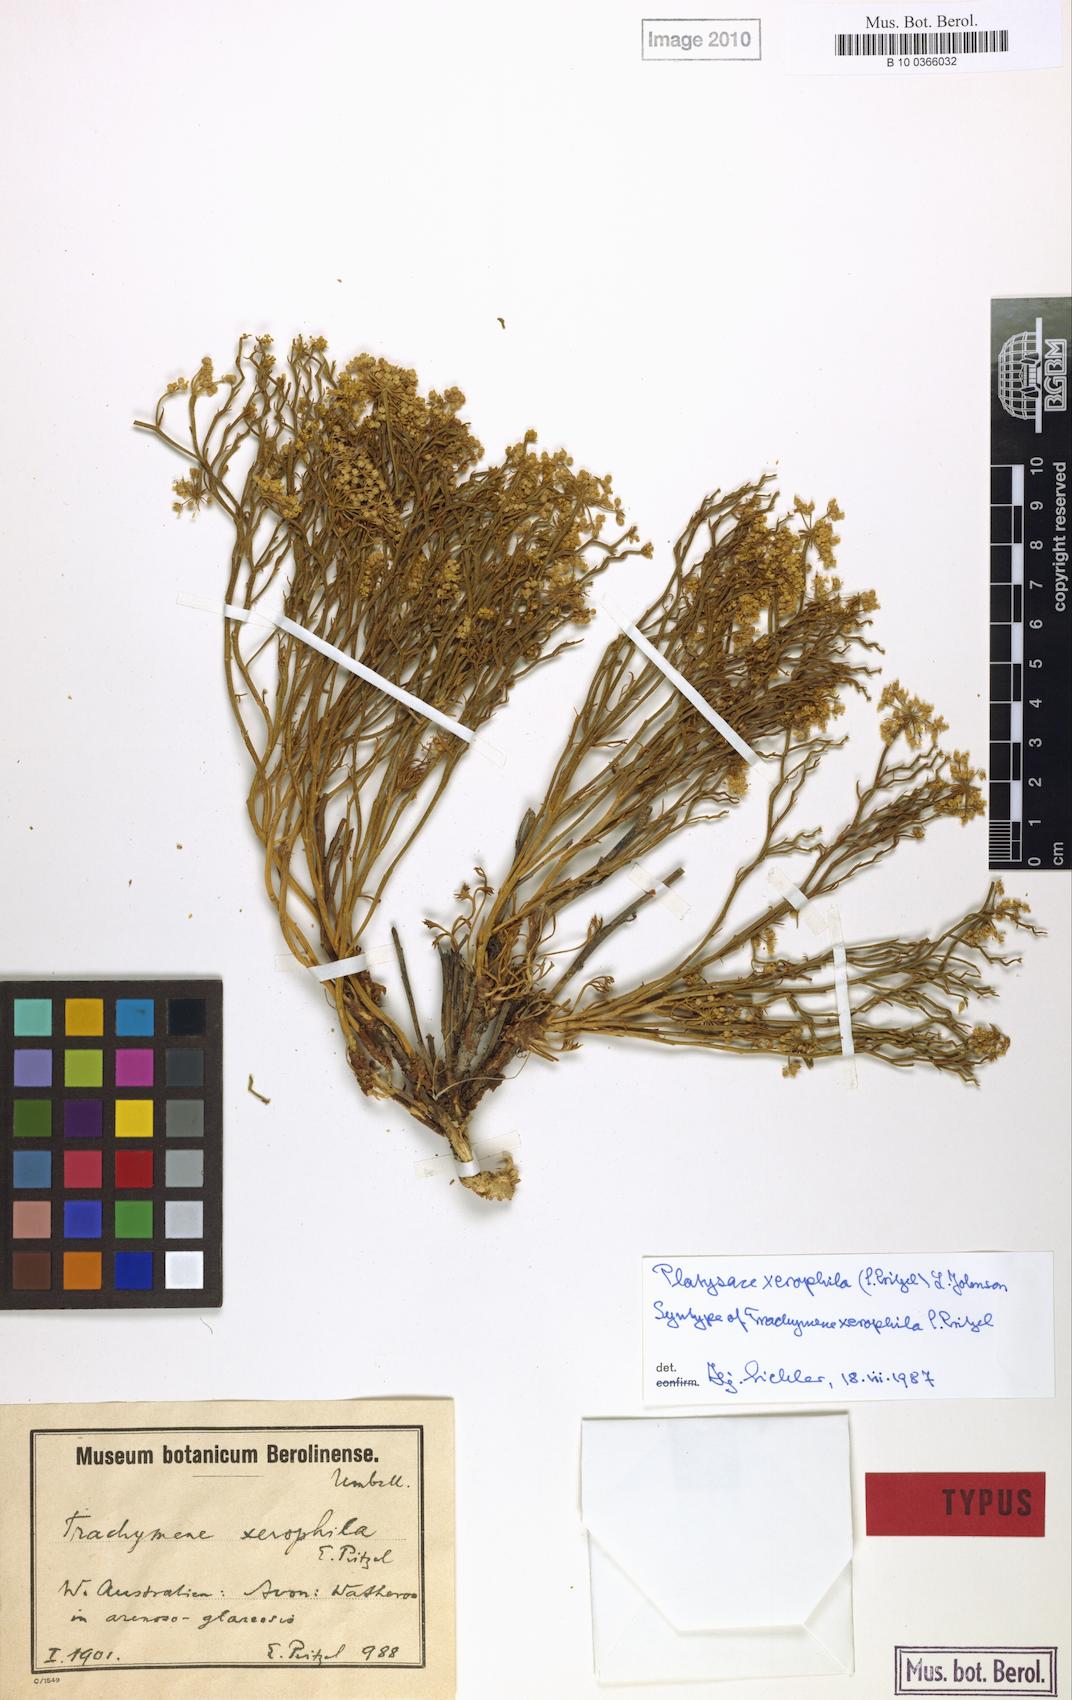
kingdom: Plantae
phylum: Tracheophyta
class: Magnoliopsida
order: Apiales
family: Apiaceae
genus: Platysace
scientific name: Platysace xerophila
